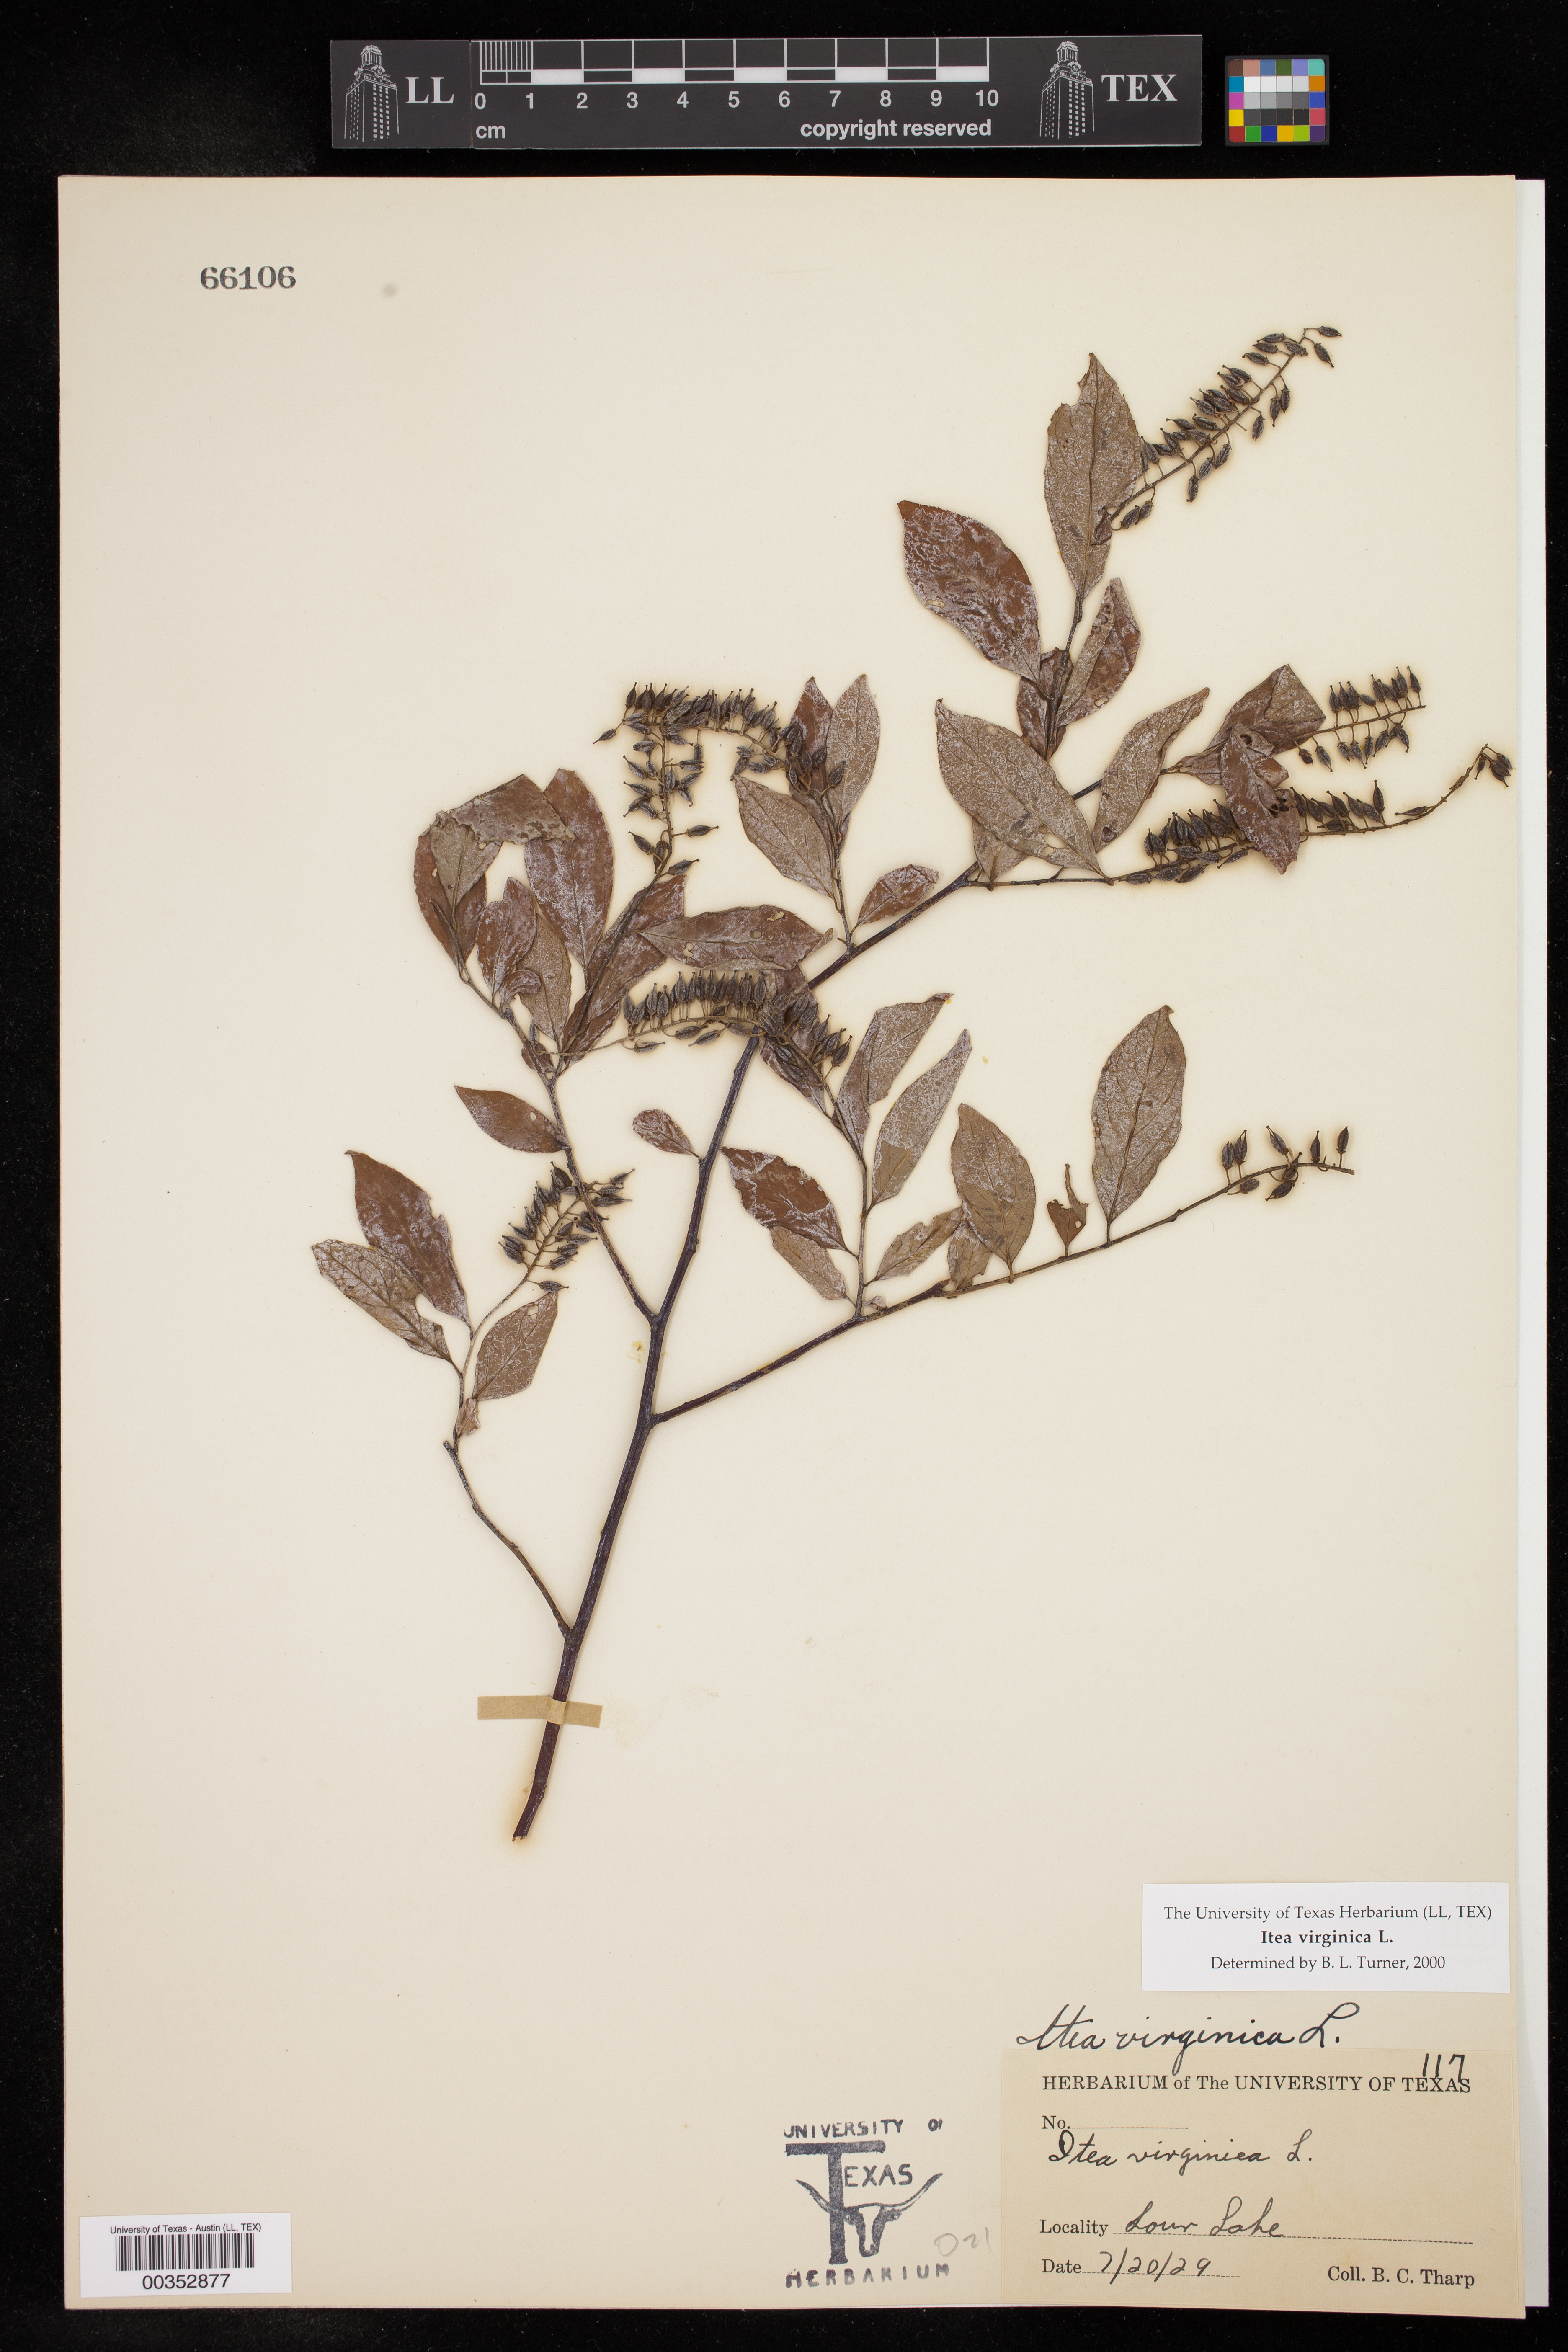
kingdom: Plantae
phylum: Tracheophyta
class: Magnoliopsida
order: Saxifragales
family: Iteaceae
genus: Itea
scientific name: Itea virginica
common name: Sweetspire
